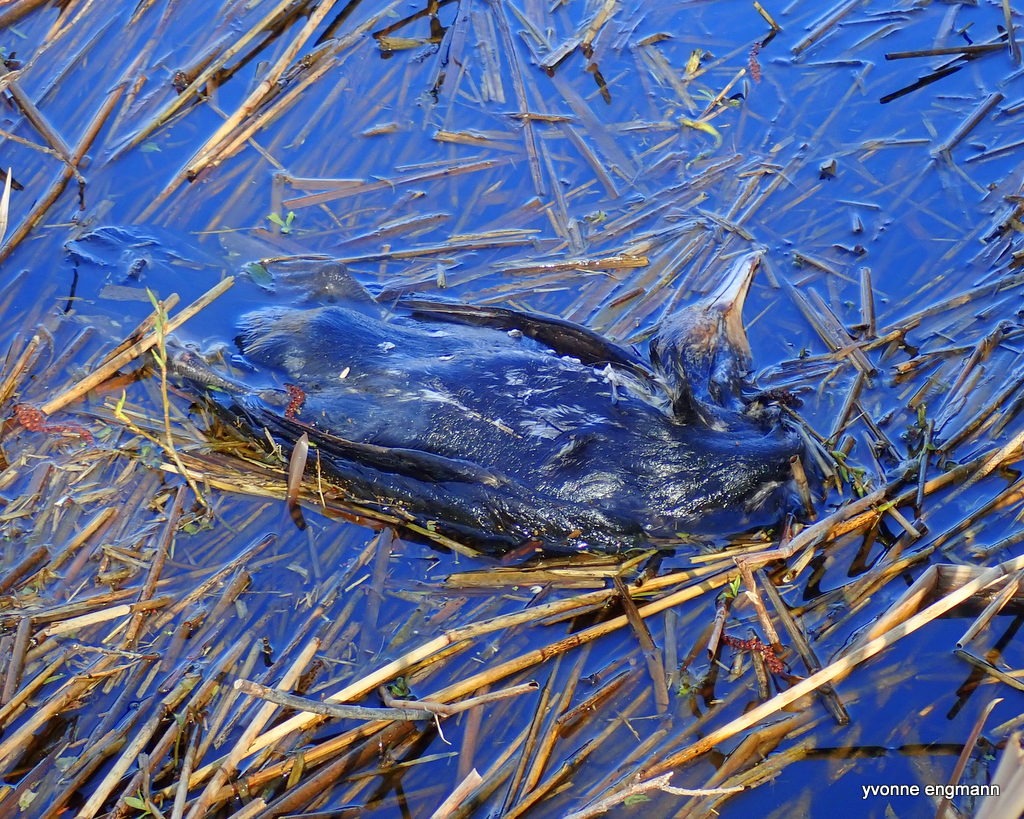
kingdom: Animalia
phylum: Chordata
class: Aves
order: Suliformes
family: Phalacrocoracidae
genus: Phalacrocorax
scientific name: Phalacrocorax carbo
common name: Skarv
